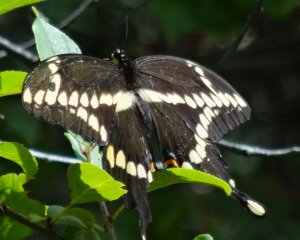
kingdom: Animalia
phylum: Arthropoda
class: Insecta
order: Lepidoptera
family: Papilionidae
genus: Papilio
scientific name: Papilio cresphontes
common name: Eastern Giant Swallowtail
